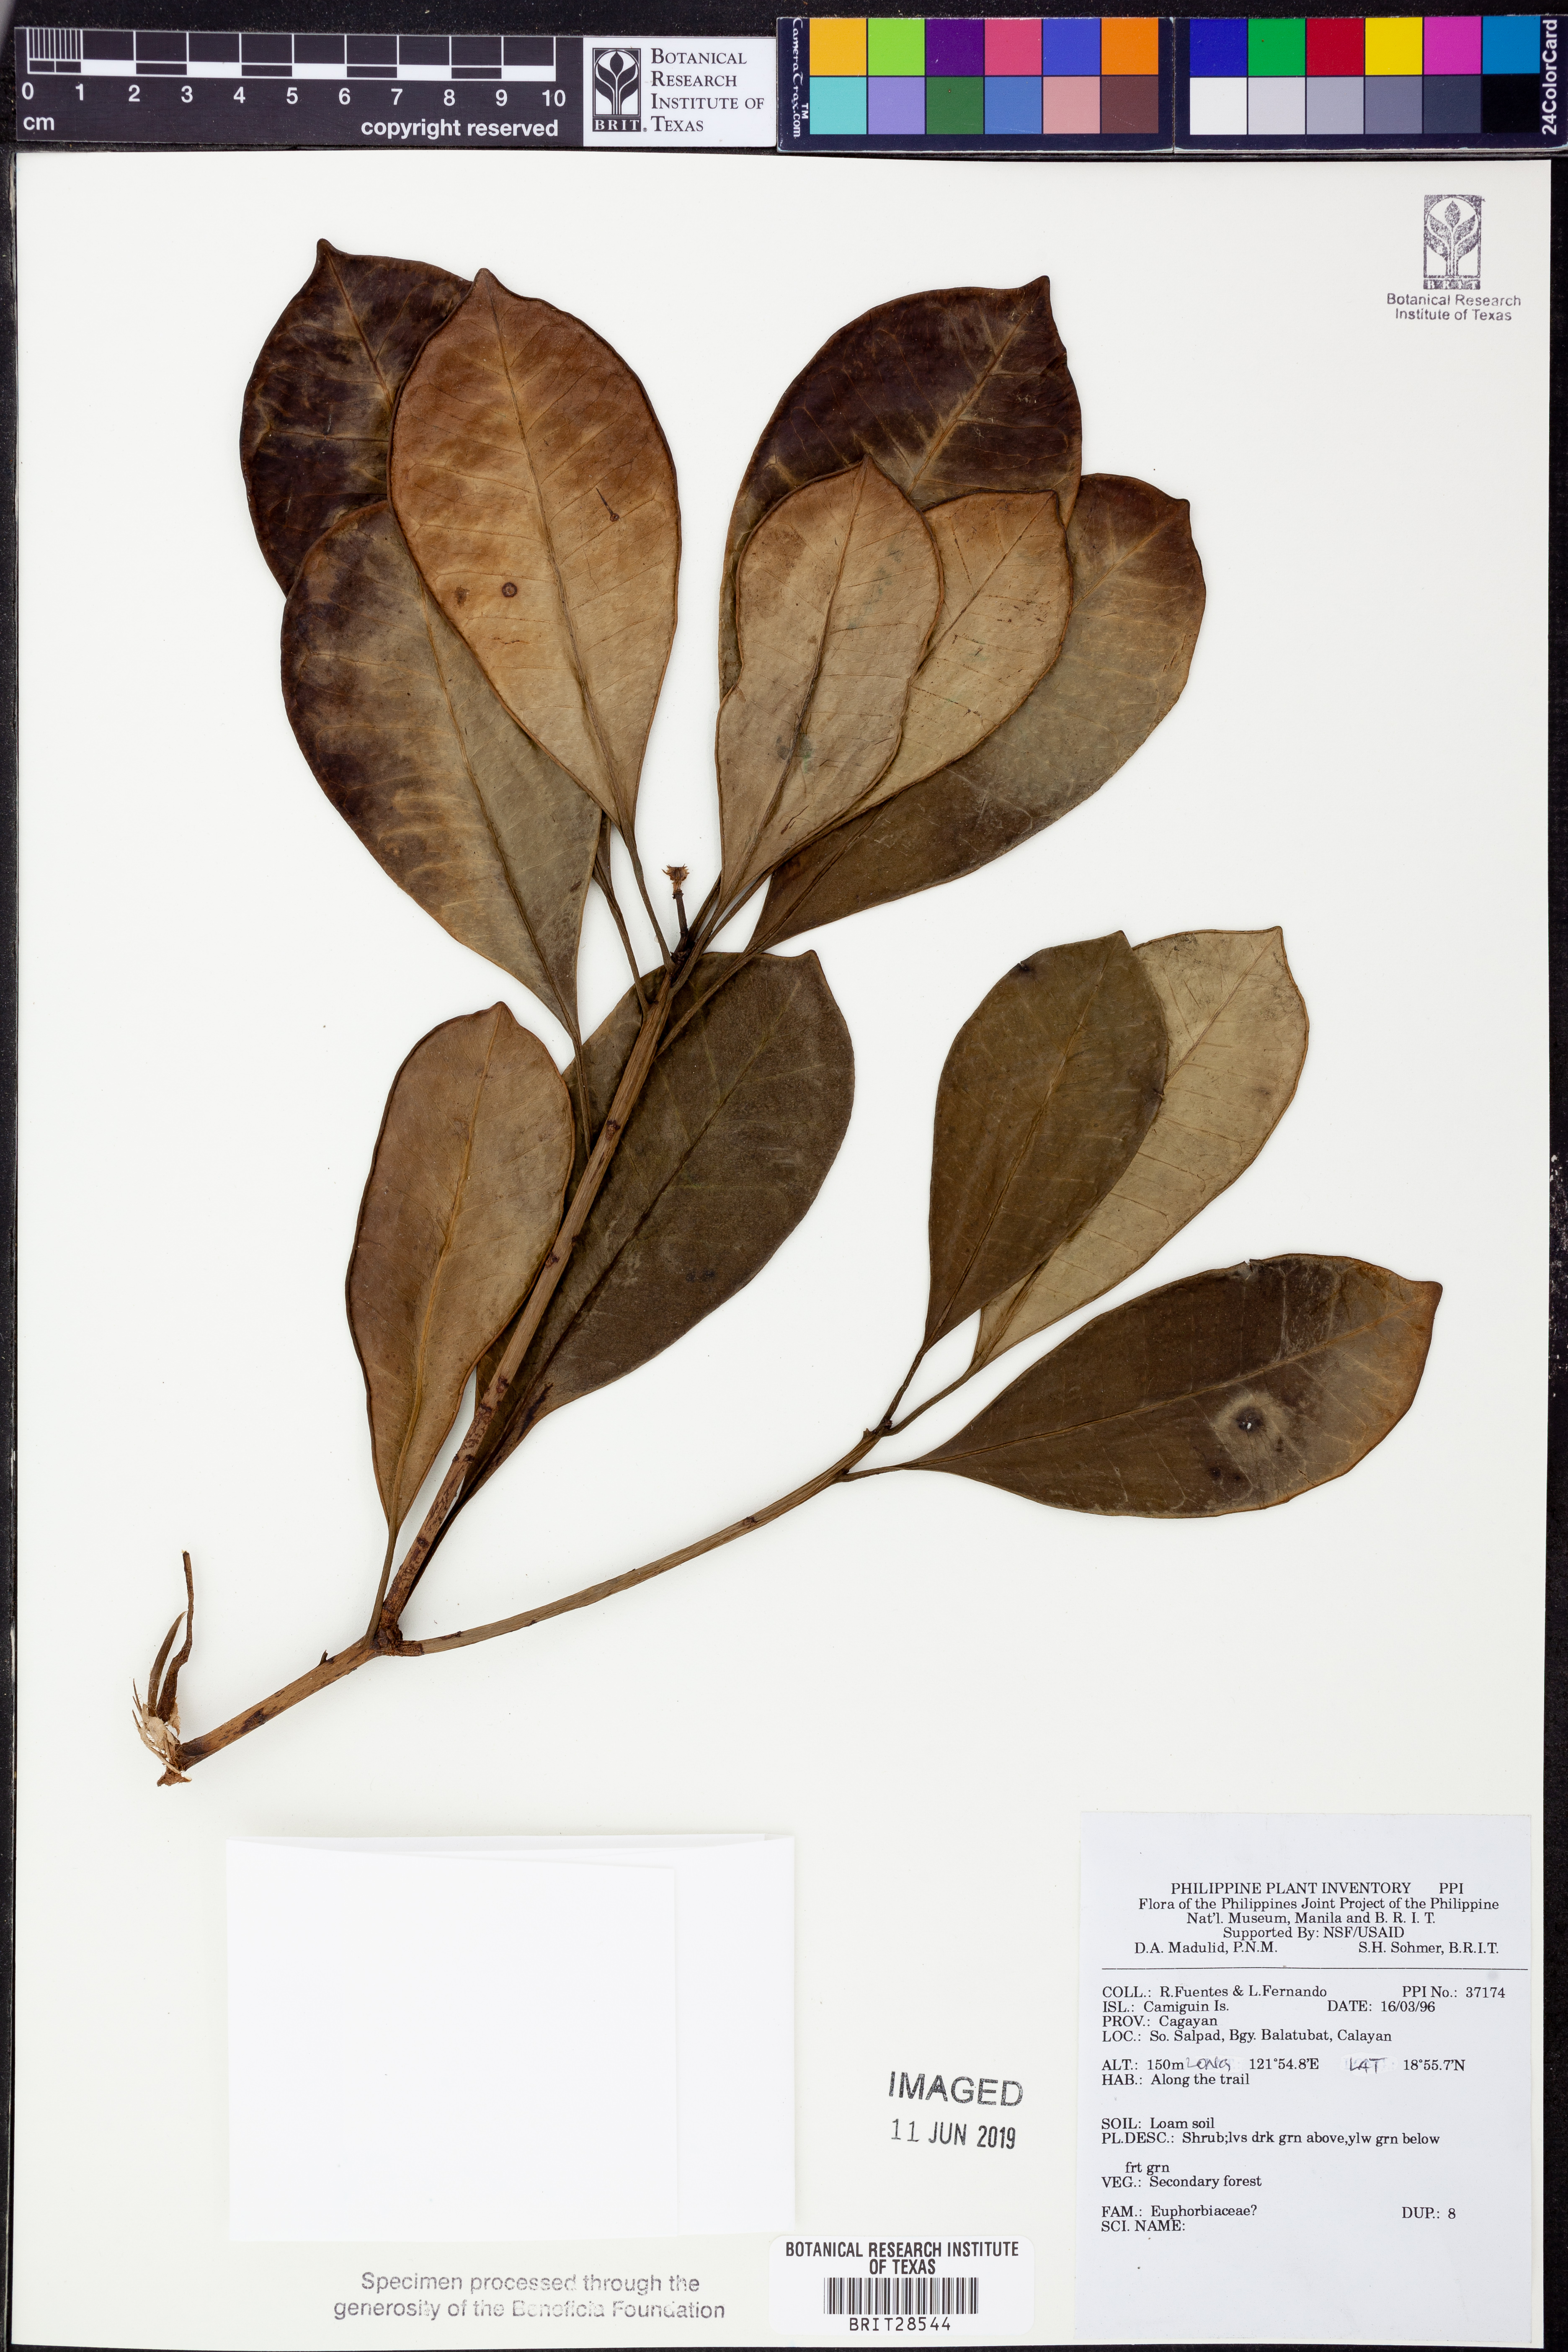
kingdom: Plantae
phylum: Tracheophyta
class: Magnoliopsida
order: Malpighiales
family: Euphorbiaceae
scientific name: Euphorbiaceae
